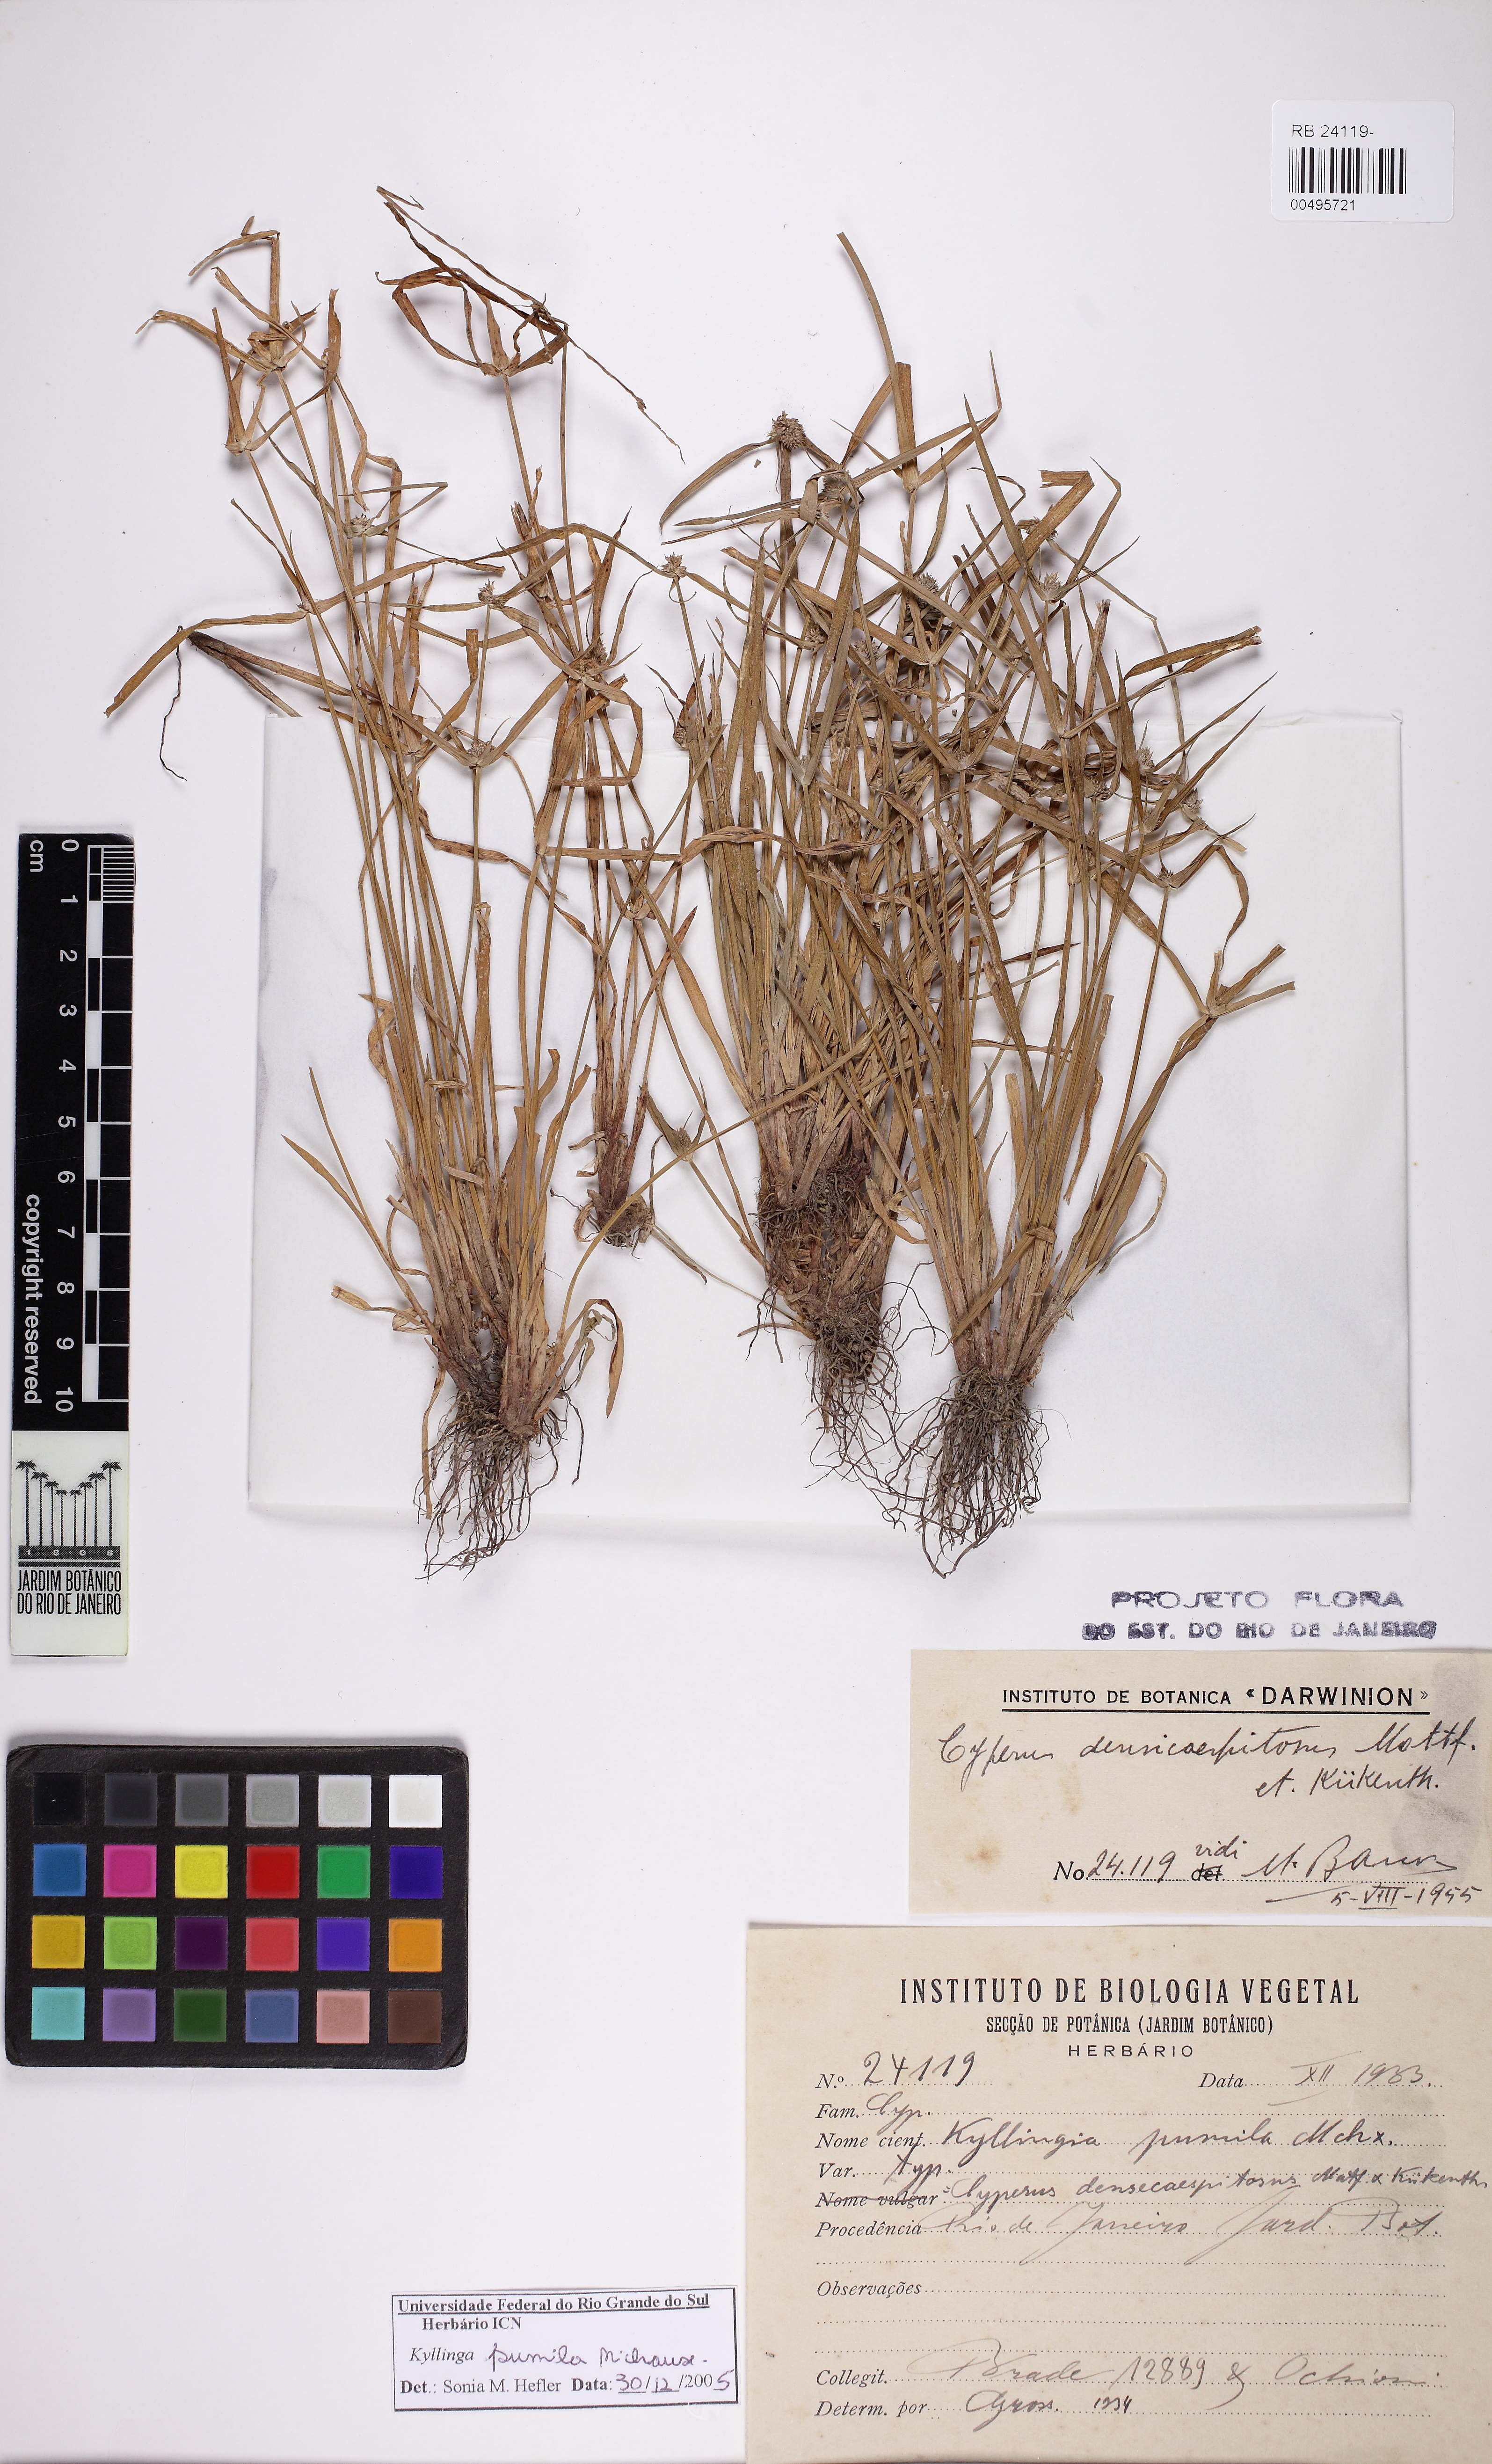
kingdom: Plantae
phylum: Tracheophyta
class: Liliopsida
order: Poales
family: Cyperaceae
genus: Cyperus
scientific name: Cyperus hortensis
